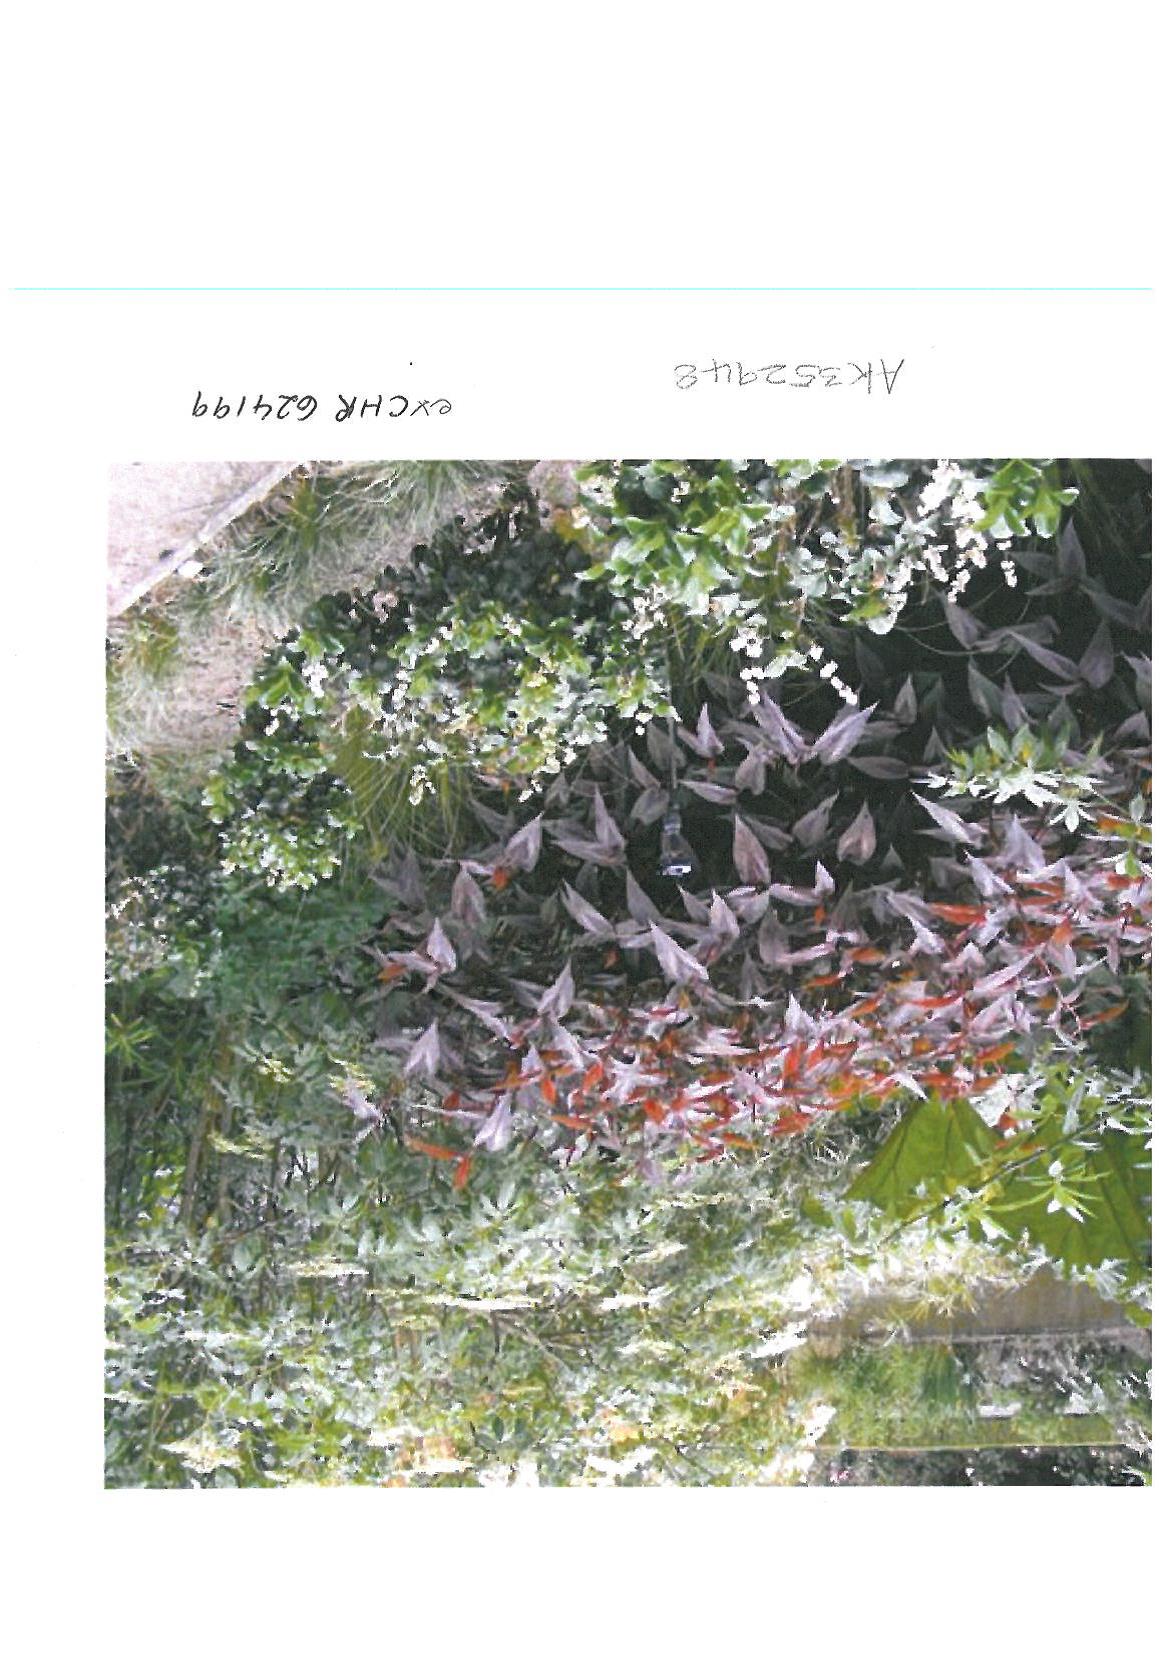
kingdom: Plantae
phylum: Tracheophyta
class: Magnoliopsida
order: Caryophyllales
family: Polygonaceae
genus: Persicaria
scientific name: Persicaria microcephala
